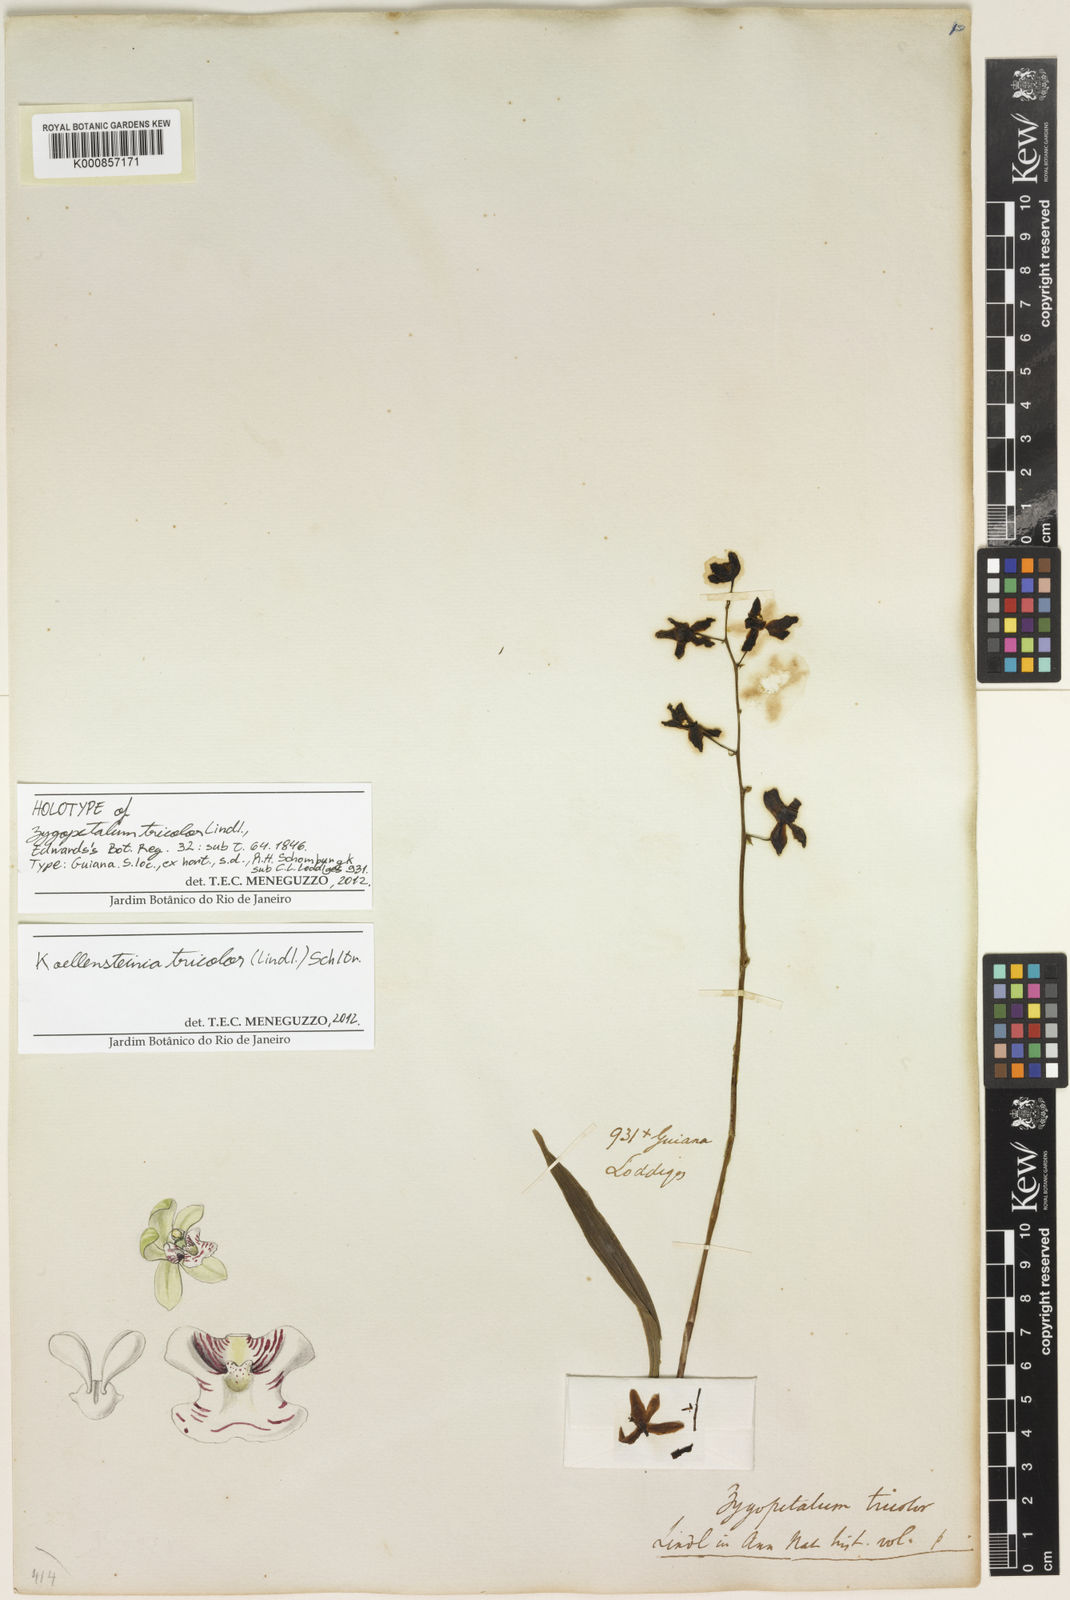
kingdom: Plantae
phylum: Tracheophyta
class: Liliopsida
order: Asparagales
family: Orchidaceae
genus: Koellensteinia
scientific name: Koellensteinia tricolor
